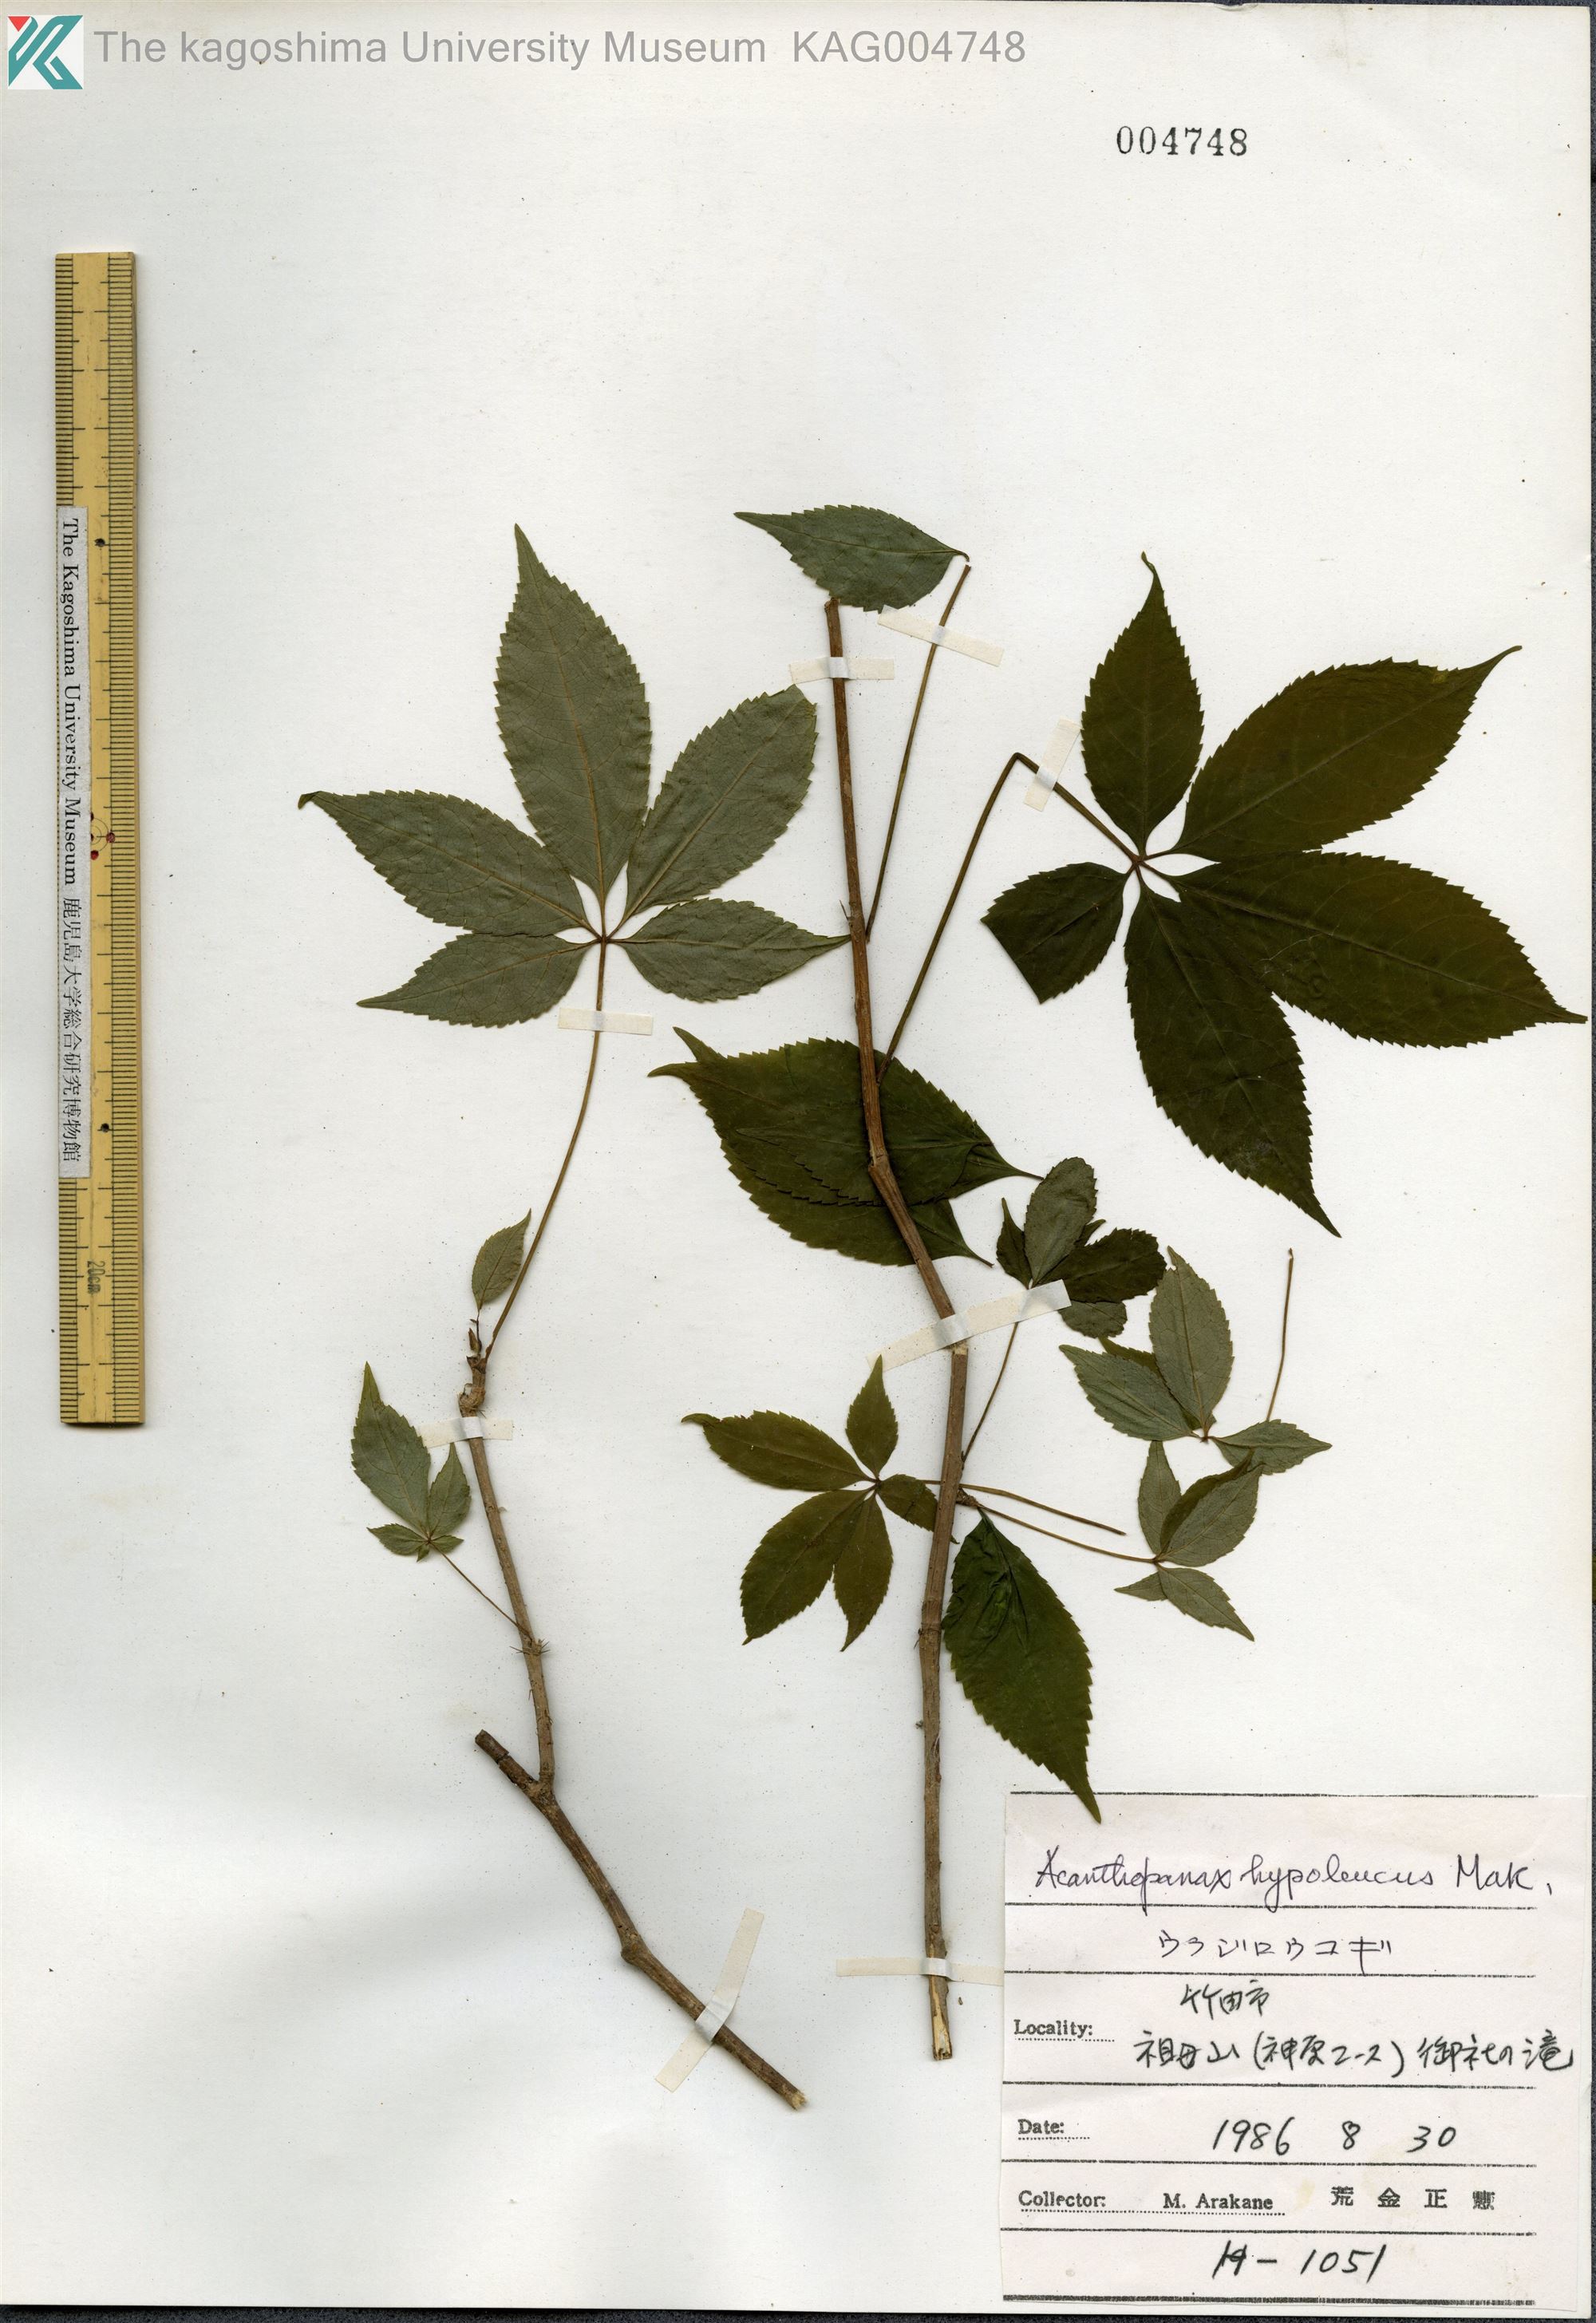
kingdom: Plantae
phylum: Tracheophyta
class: Magnoliopsida
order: Apiales
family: Araliaceae
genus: Eleutherococcus
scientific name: Eleutherococcus hypoleucus
